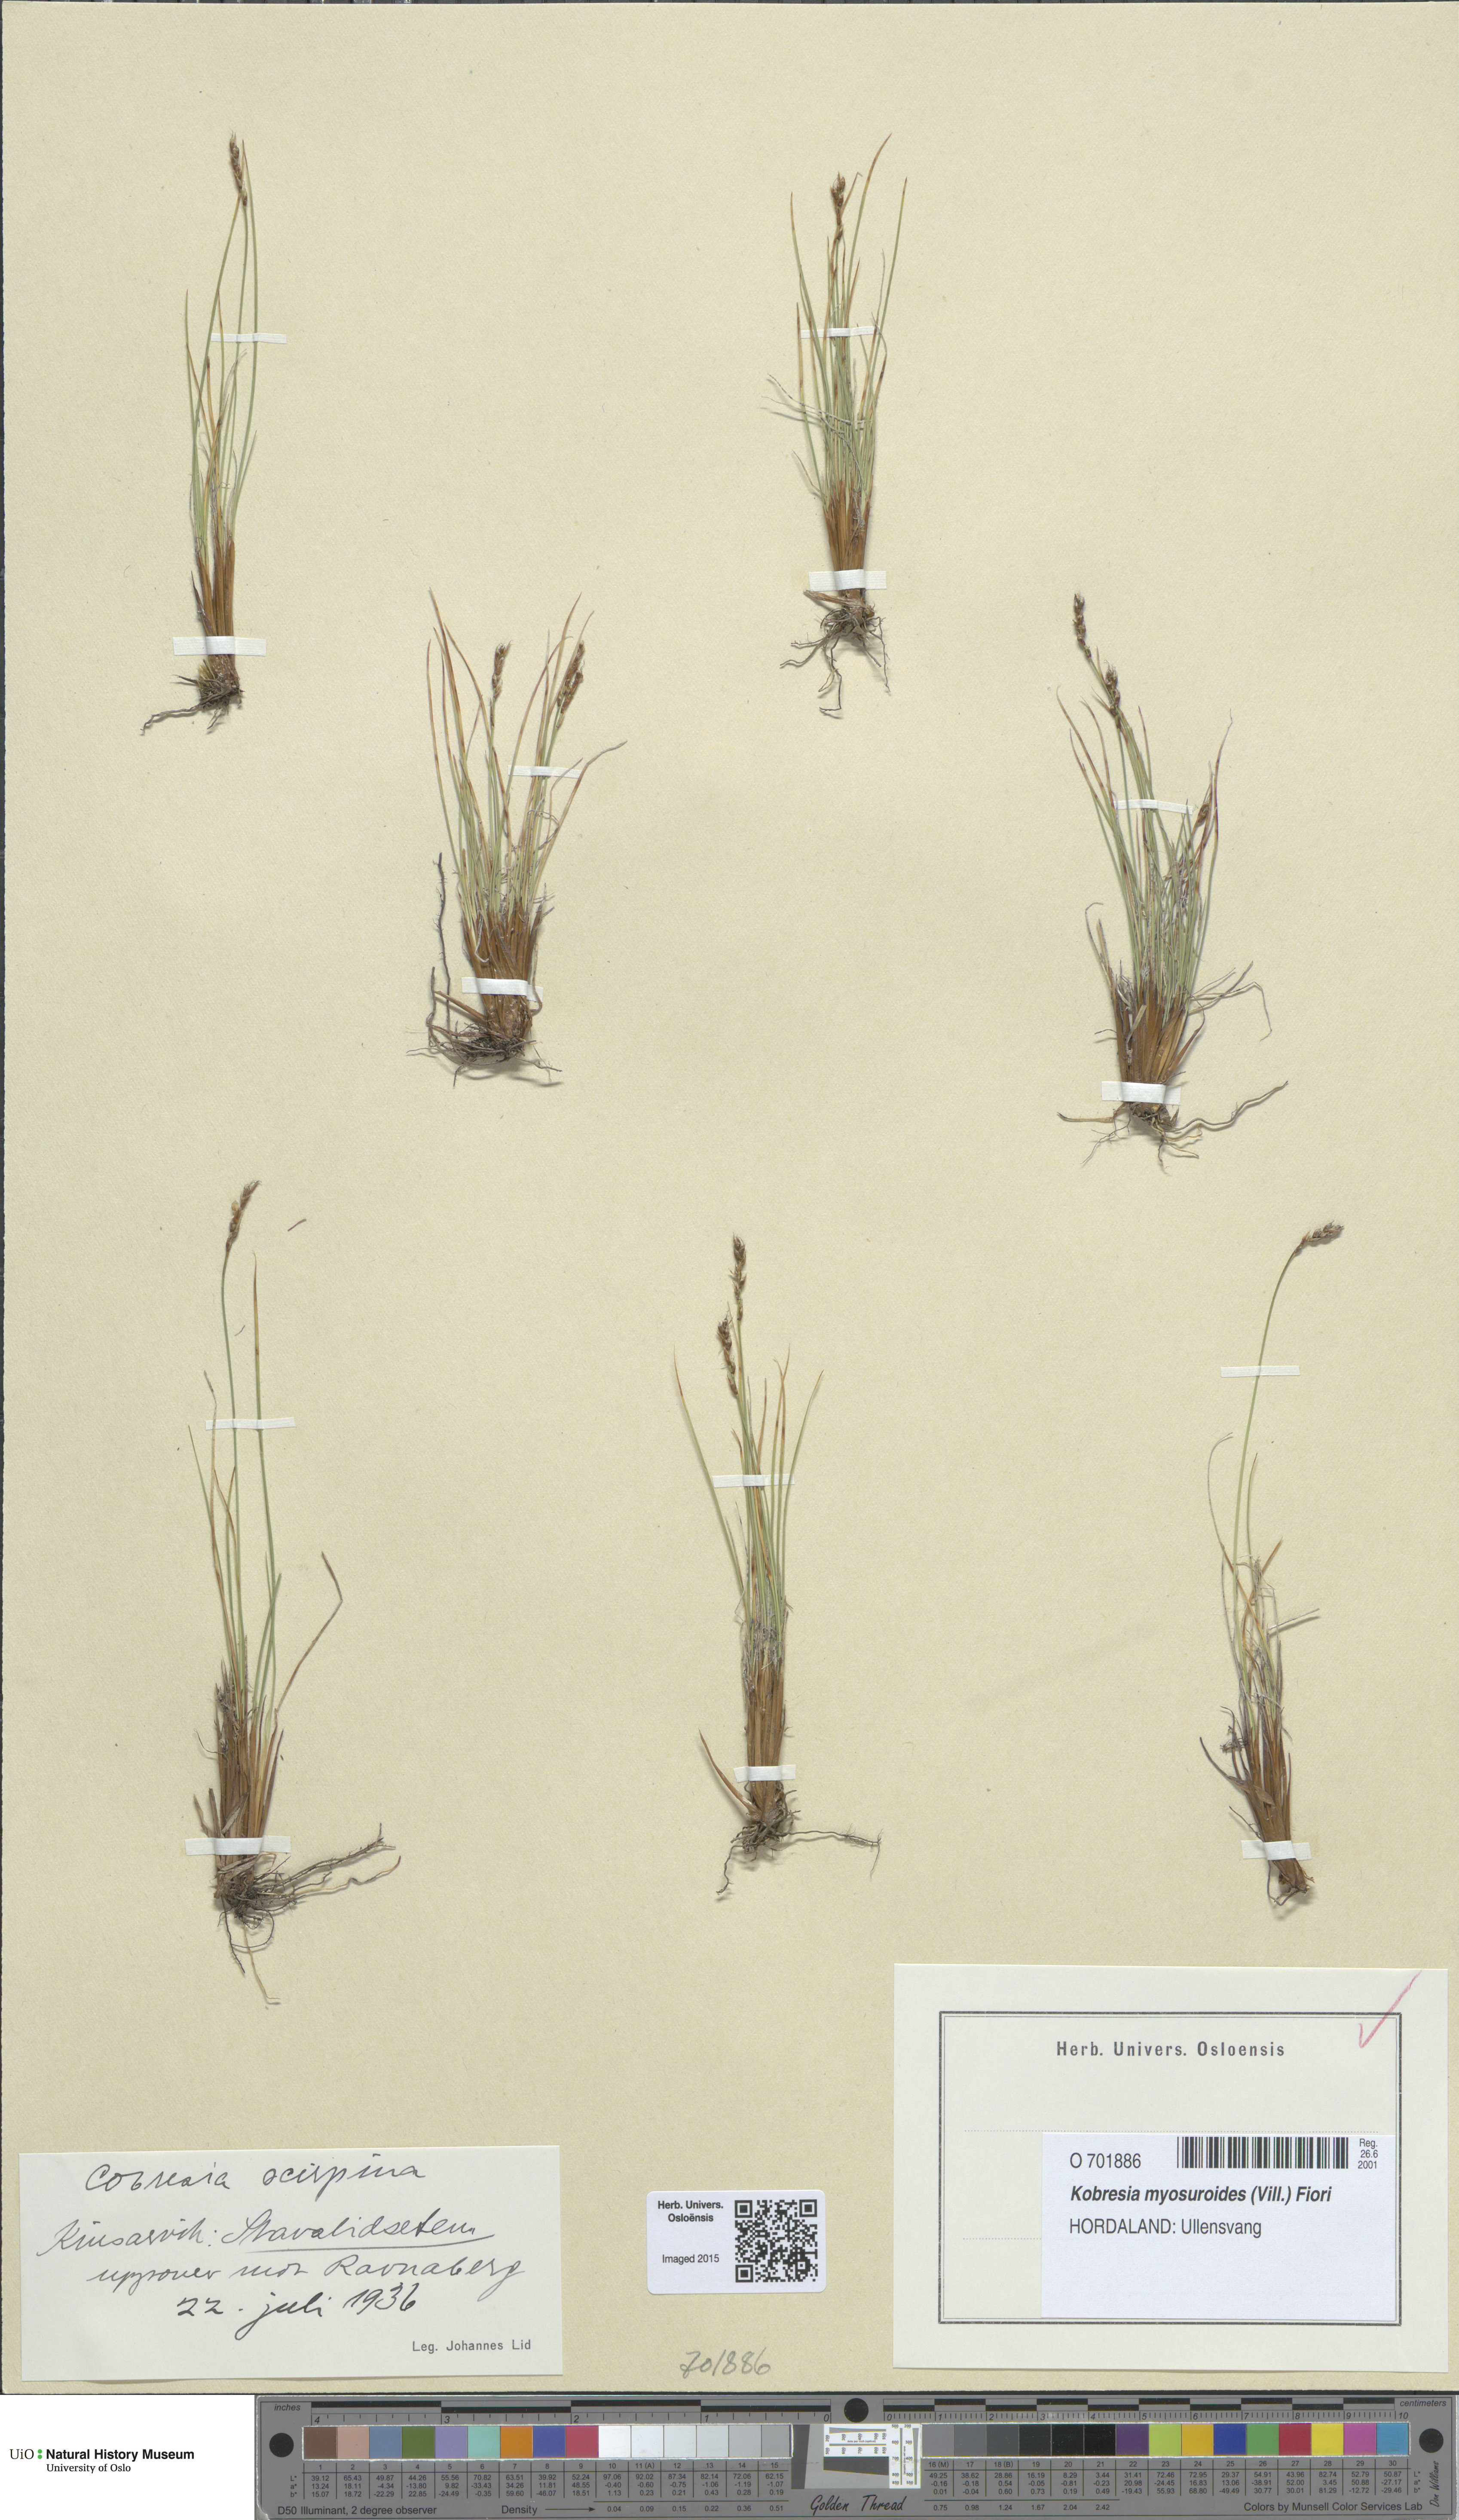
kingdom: Plantae
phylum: Tracheophyta
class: Liliopsida
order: Poales
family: Cyperaceae
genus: Carex
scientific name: Carex myosuroides
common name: Bellard's bog sedge
